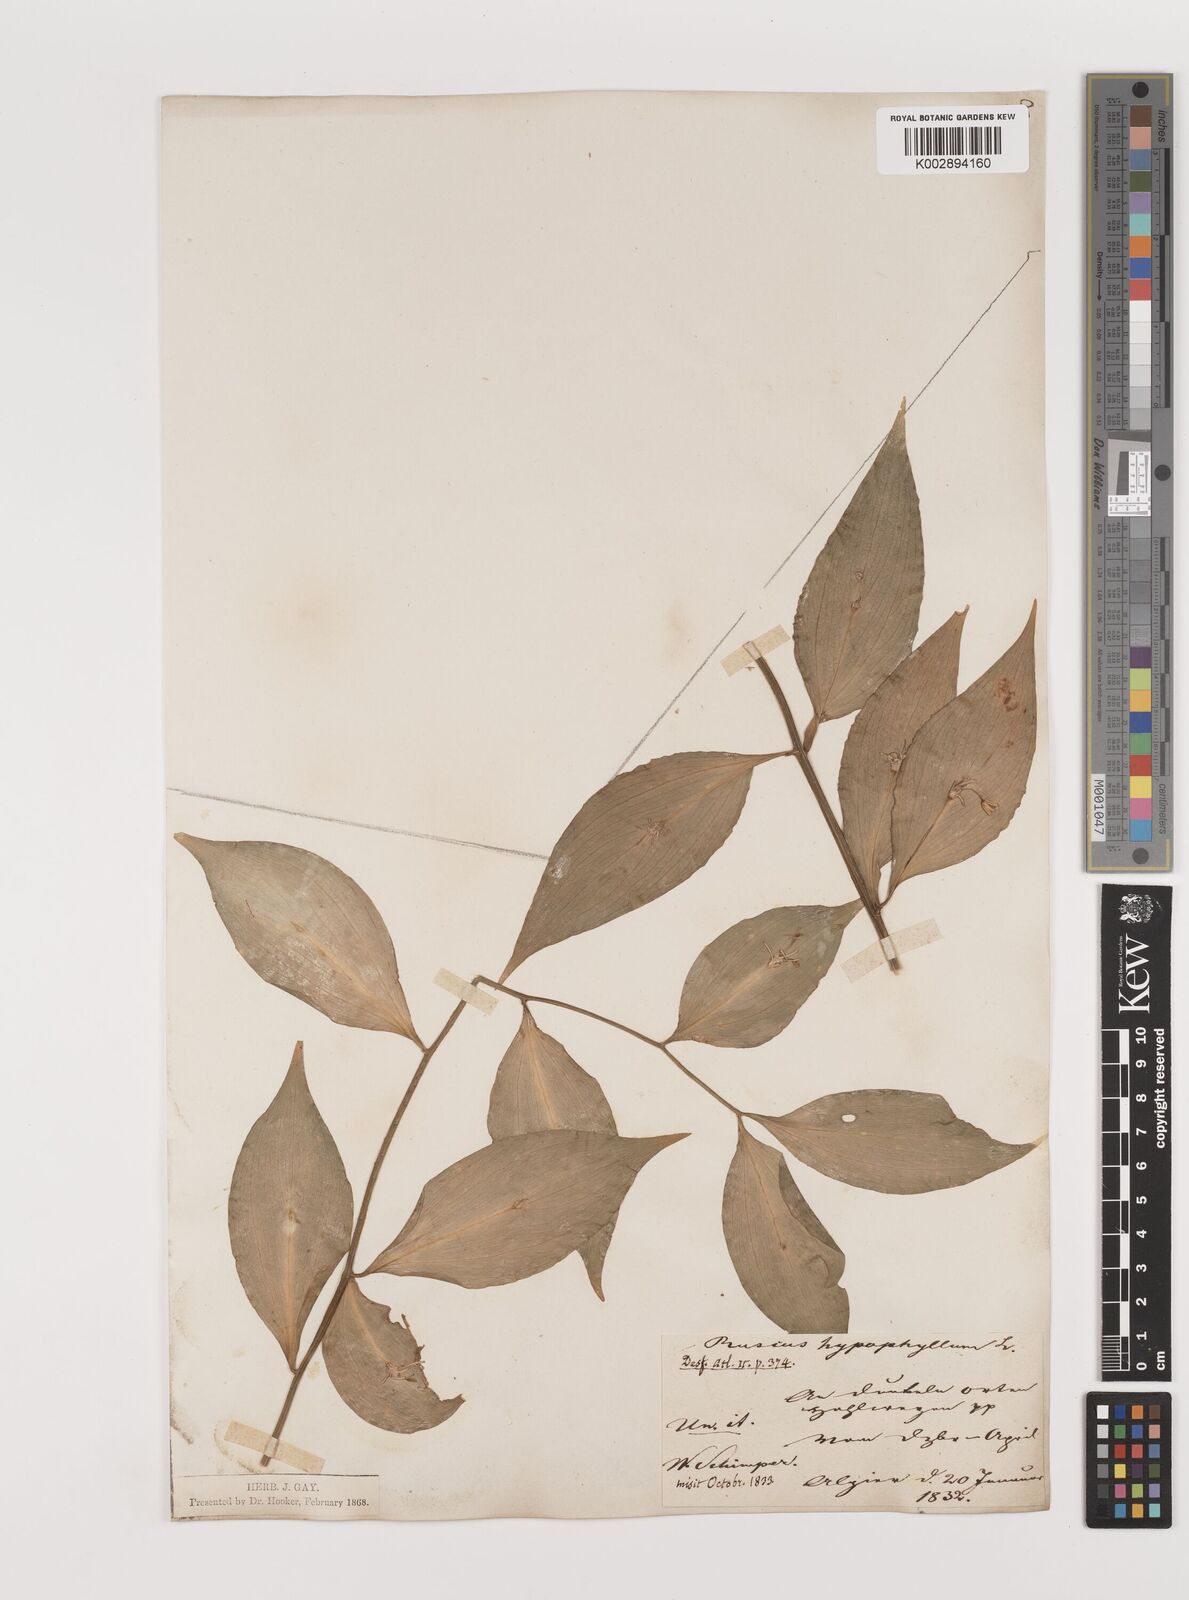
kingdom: Plantae
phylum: Tracheophyta
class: Liliopsida
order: Asparagales
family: Asparagaceae
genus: Ruscus
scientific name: Ruscus hypophyllum
